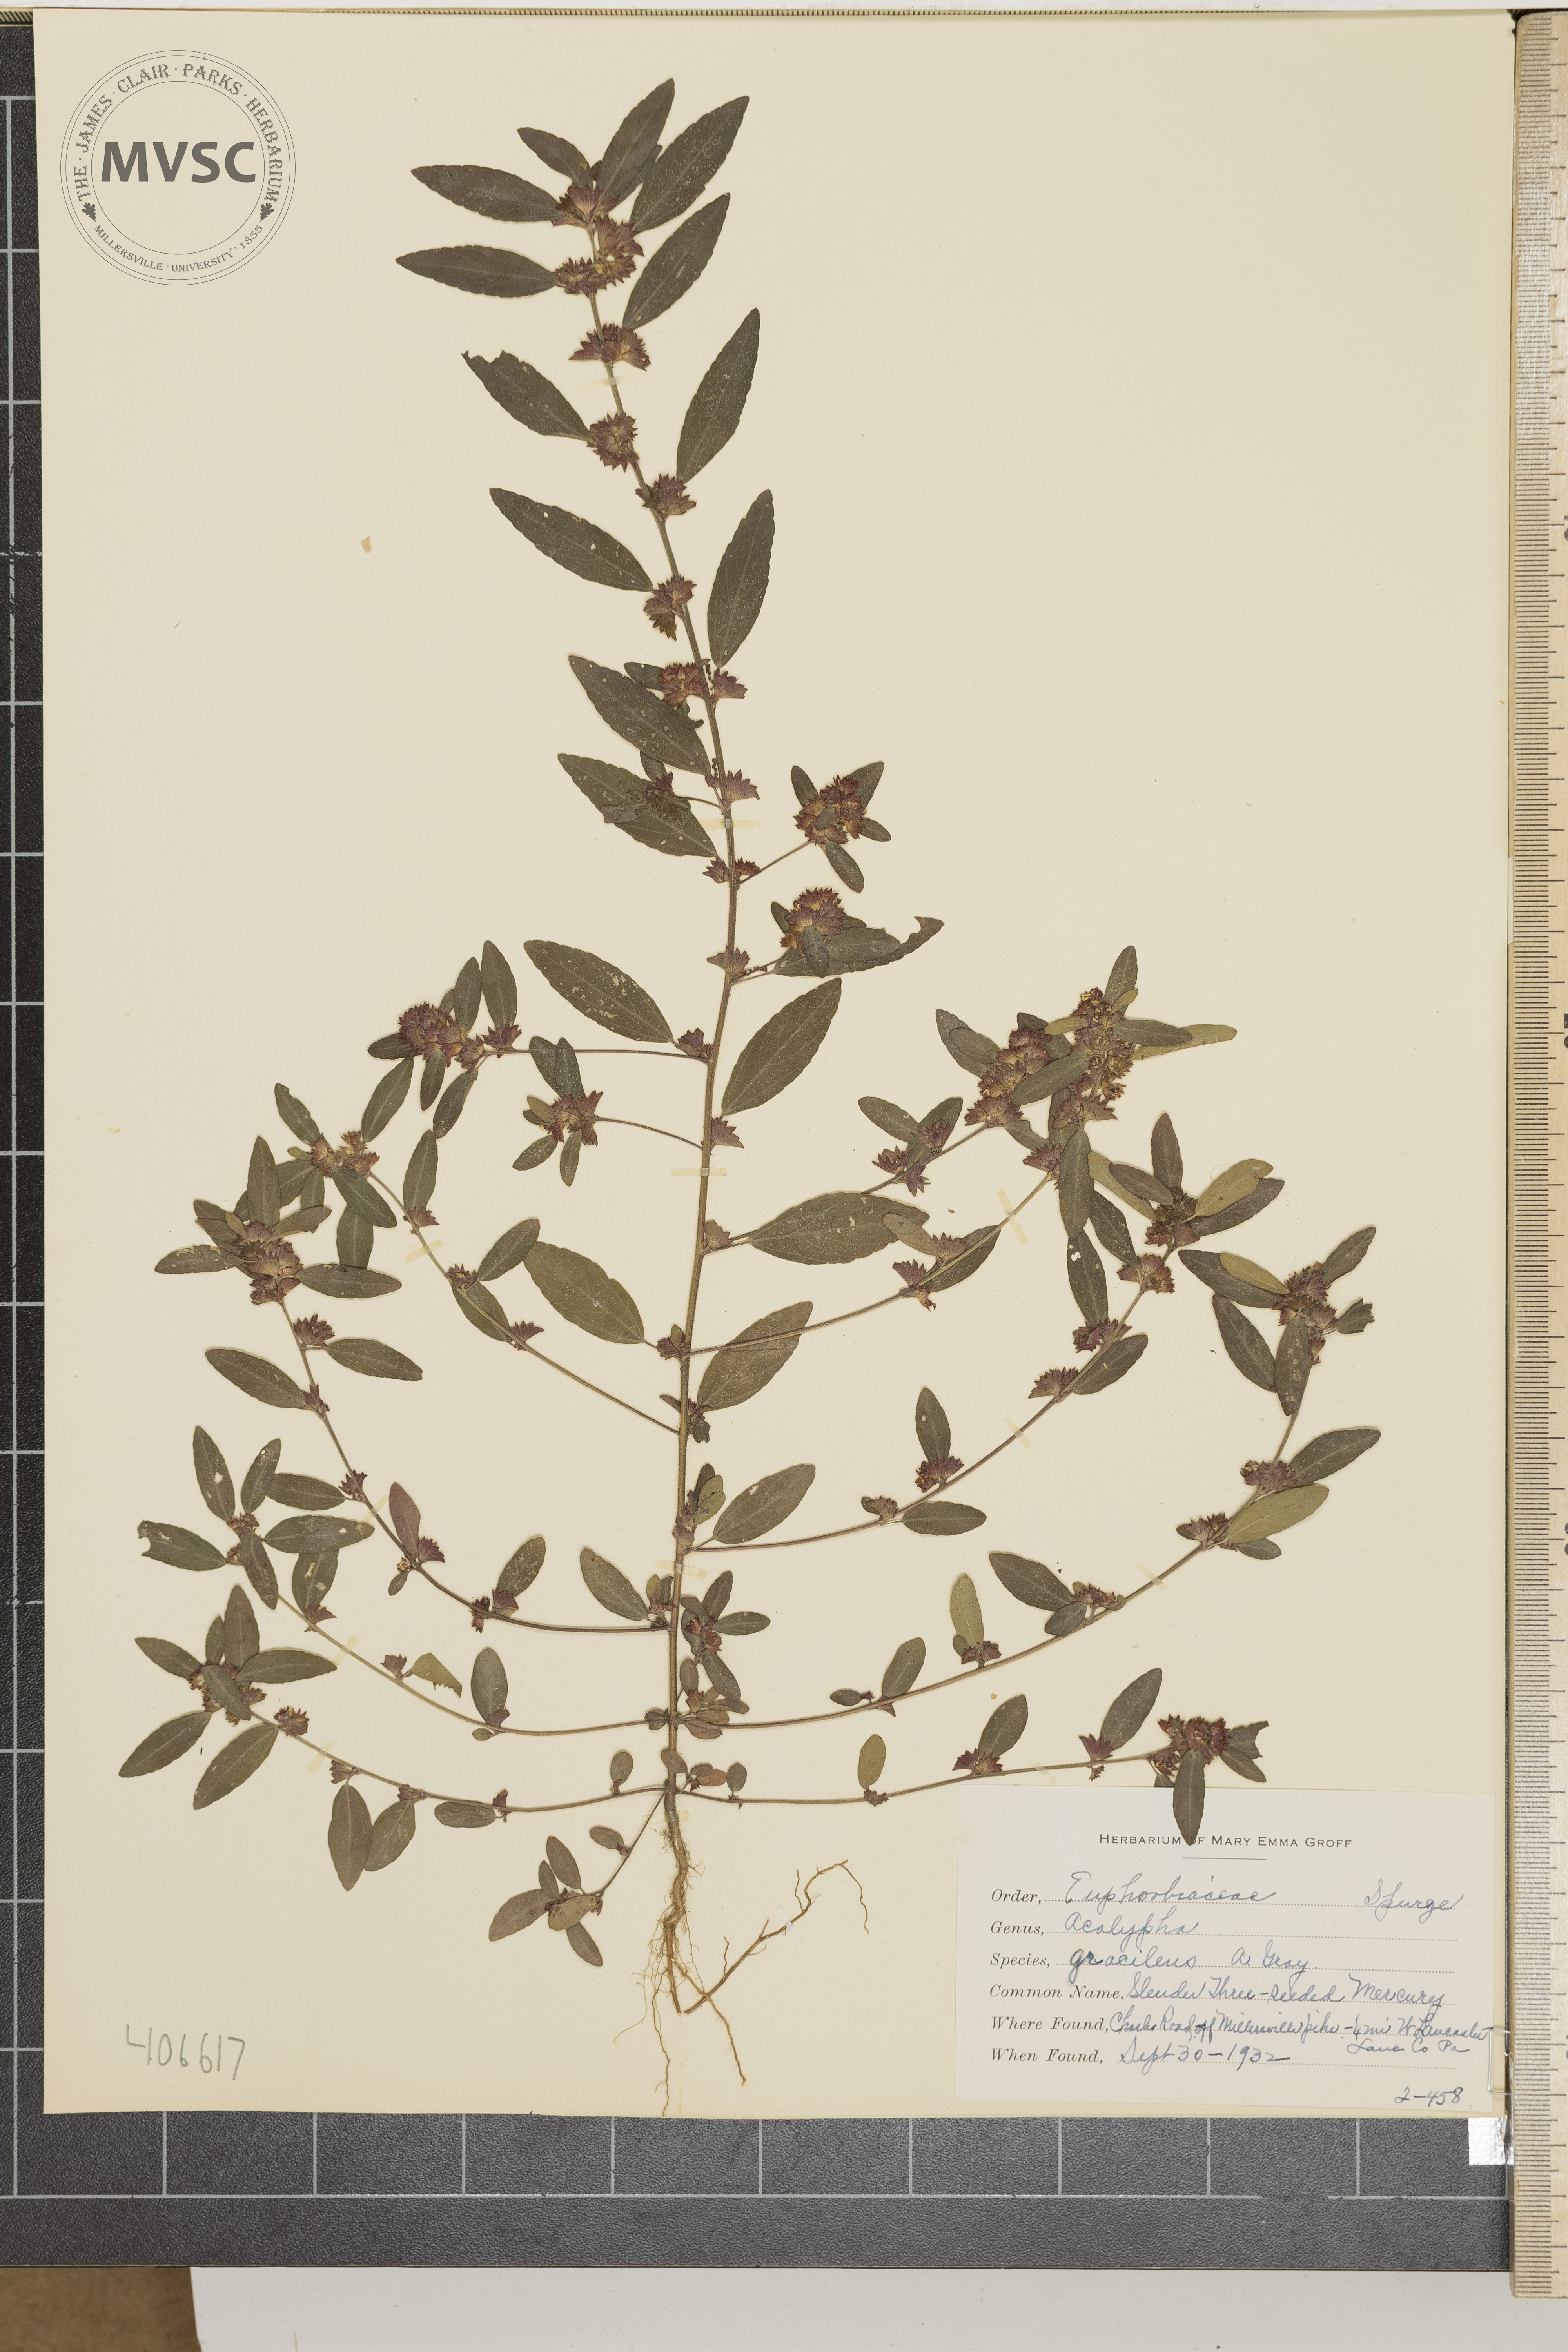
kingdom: Plantae
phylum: Tracheophyta
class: Magnoliopsida
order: Malpighiales
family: Euphorbiaceae
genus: Acalypha
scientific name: Acalypha gracilens
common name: Slender Three-seeded Mercury
